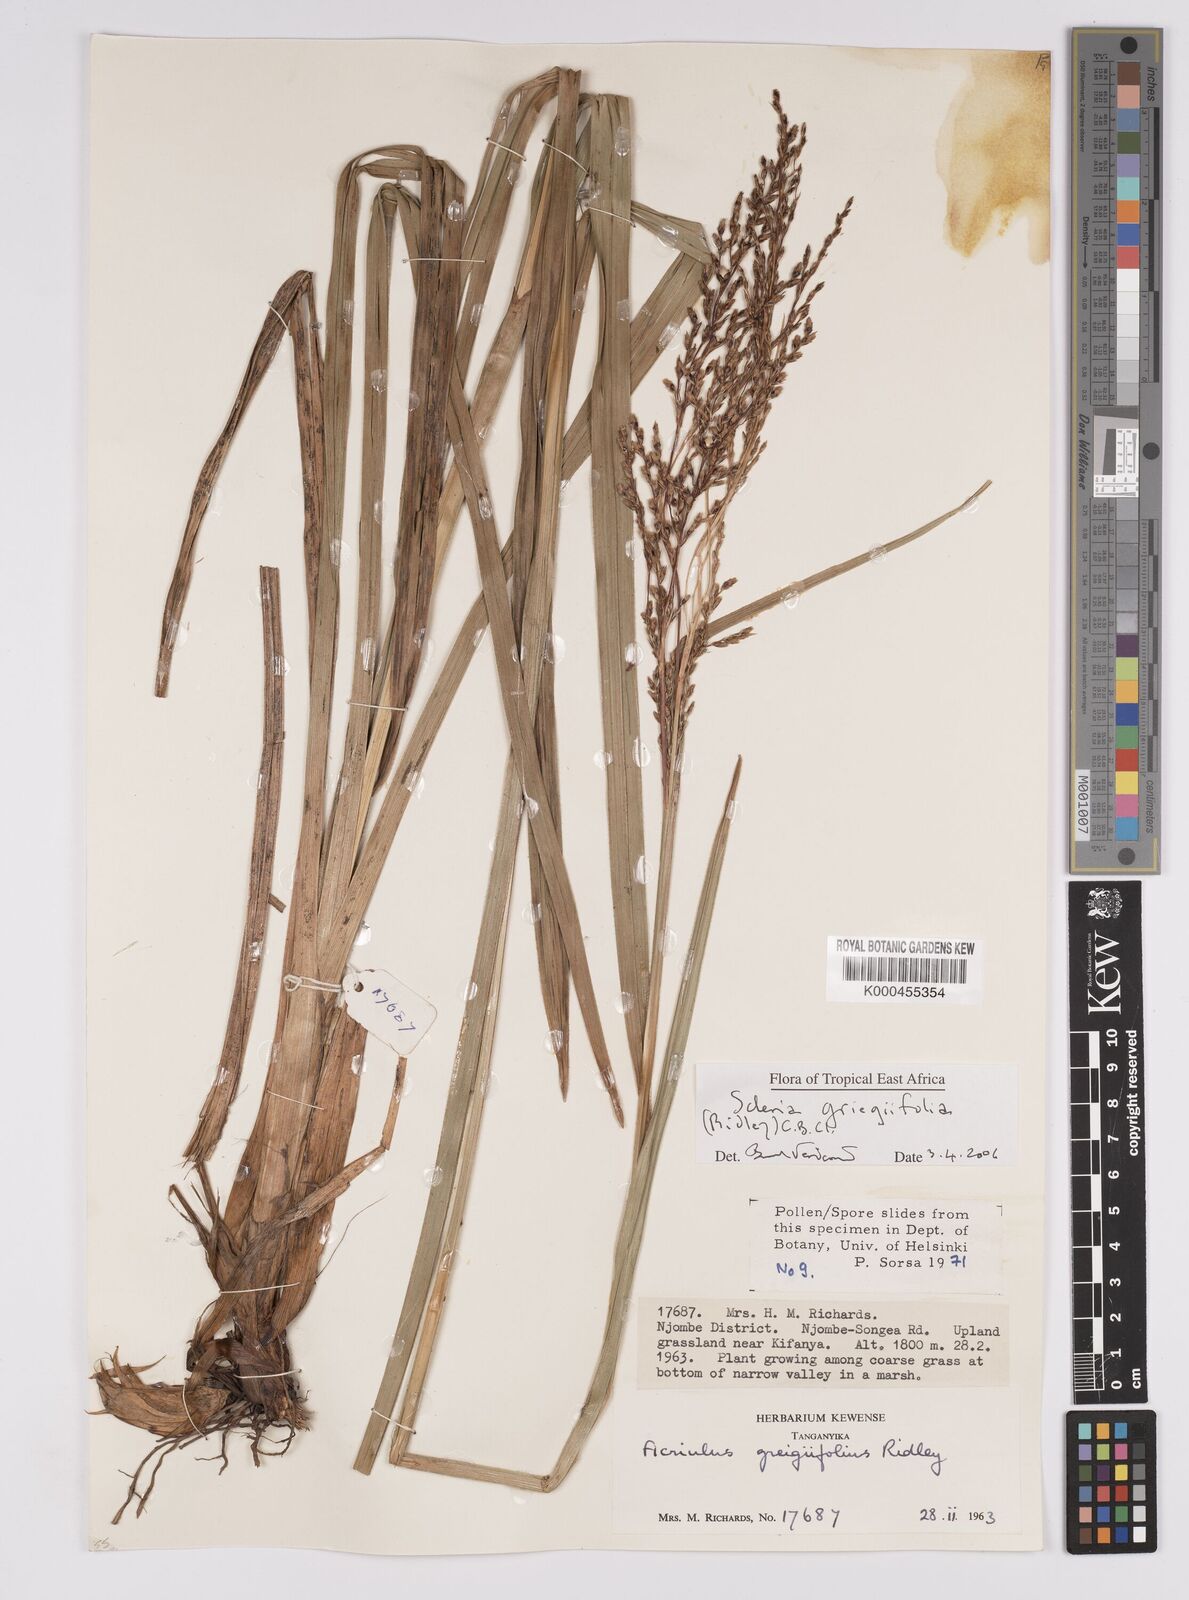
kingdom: Plantae
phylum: Tracheophyta
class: Liliopsida
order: Poales
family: Cyperaceae
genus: Scleria
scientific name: Scleria greigiifolia
